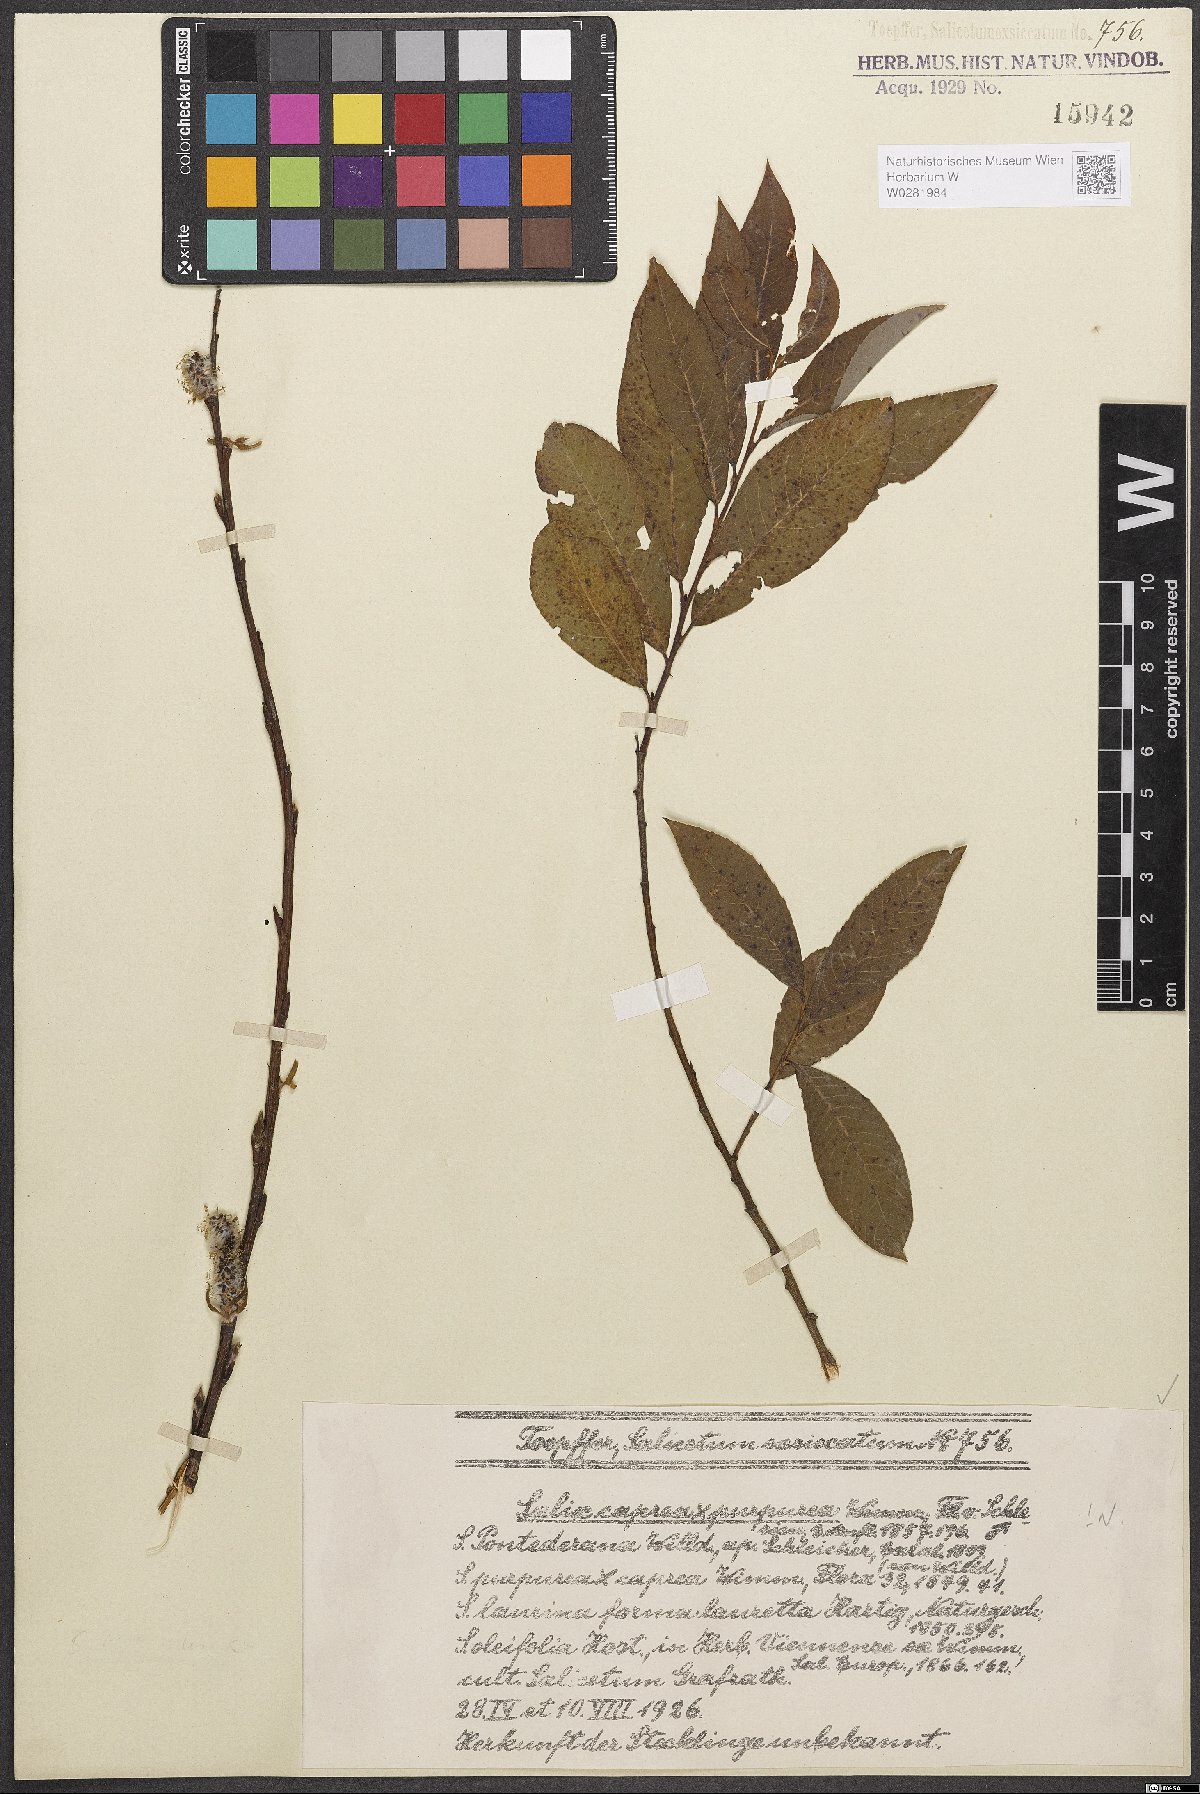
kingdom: Plantae
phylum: Tracheophyta
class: Magnoliopsida
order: Malpighiales
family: Salicaceae
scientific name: Salicaceae
